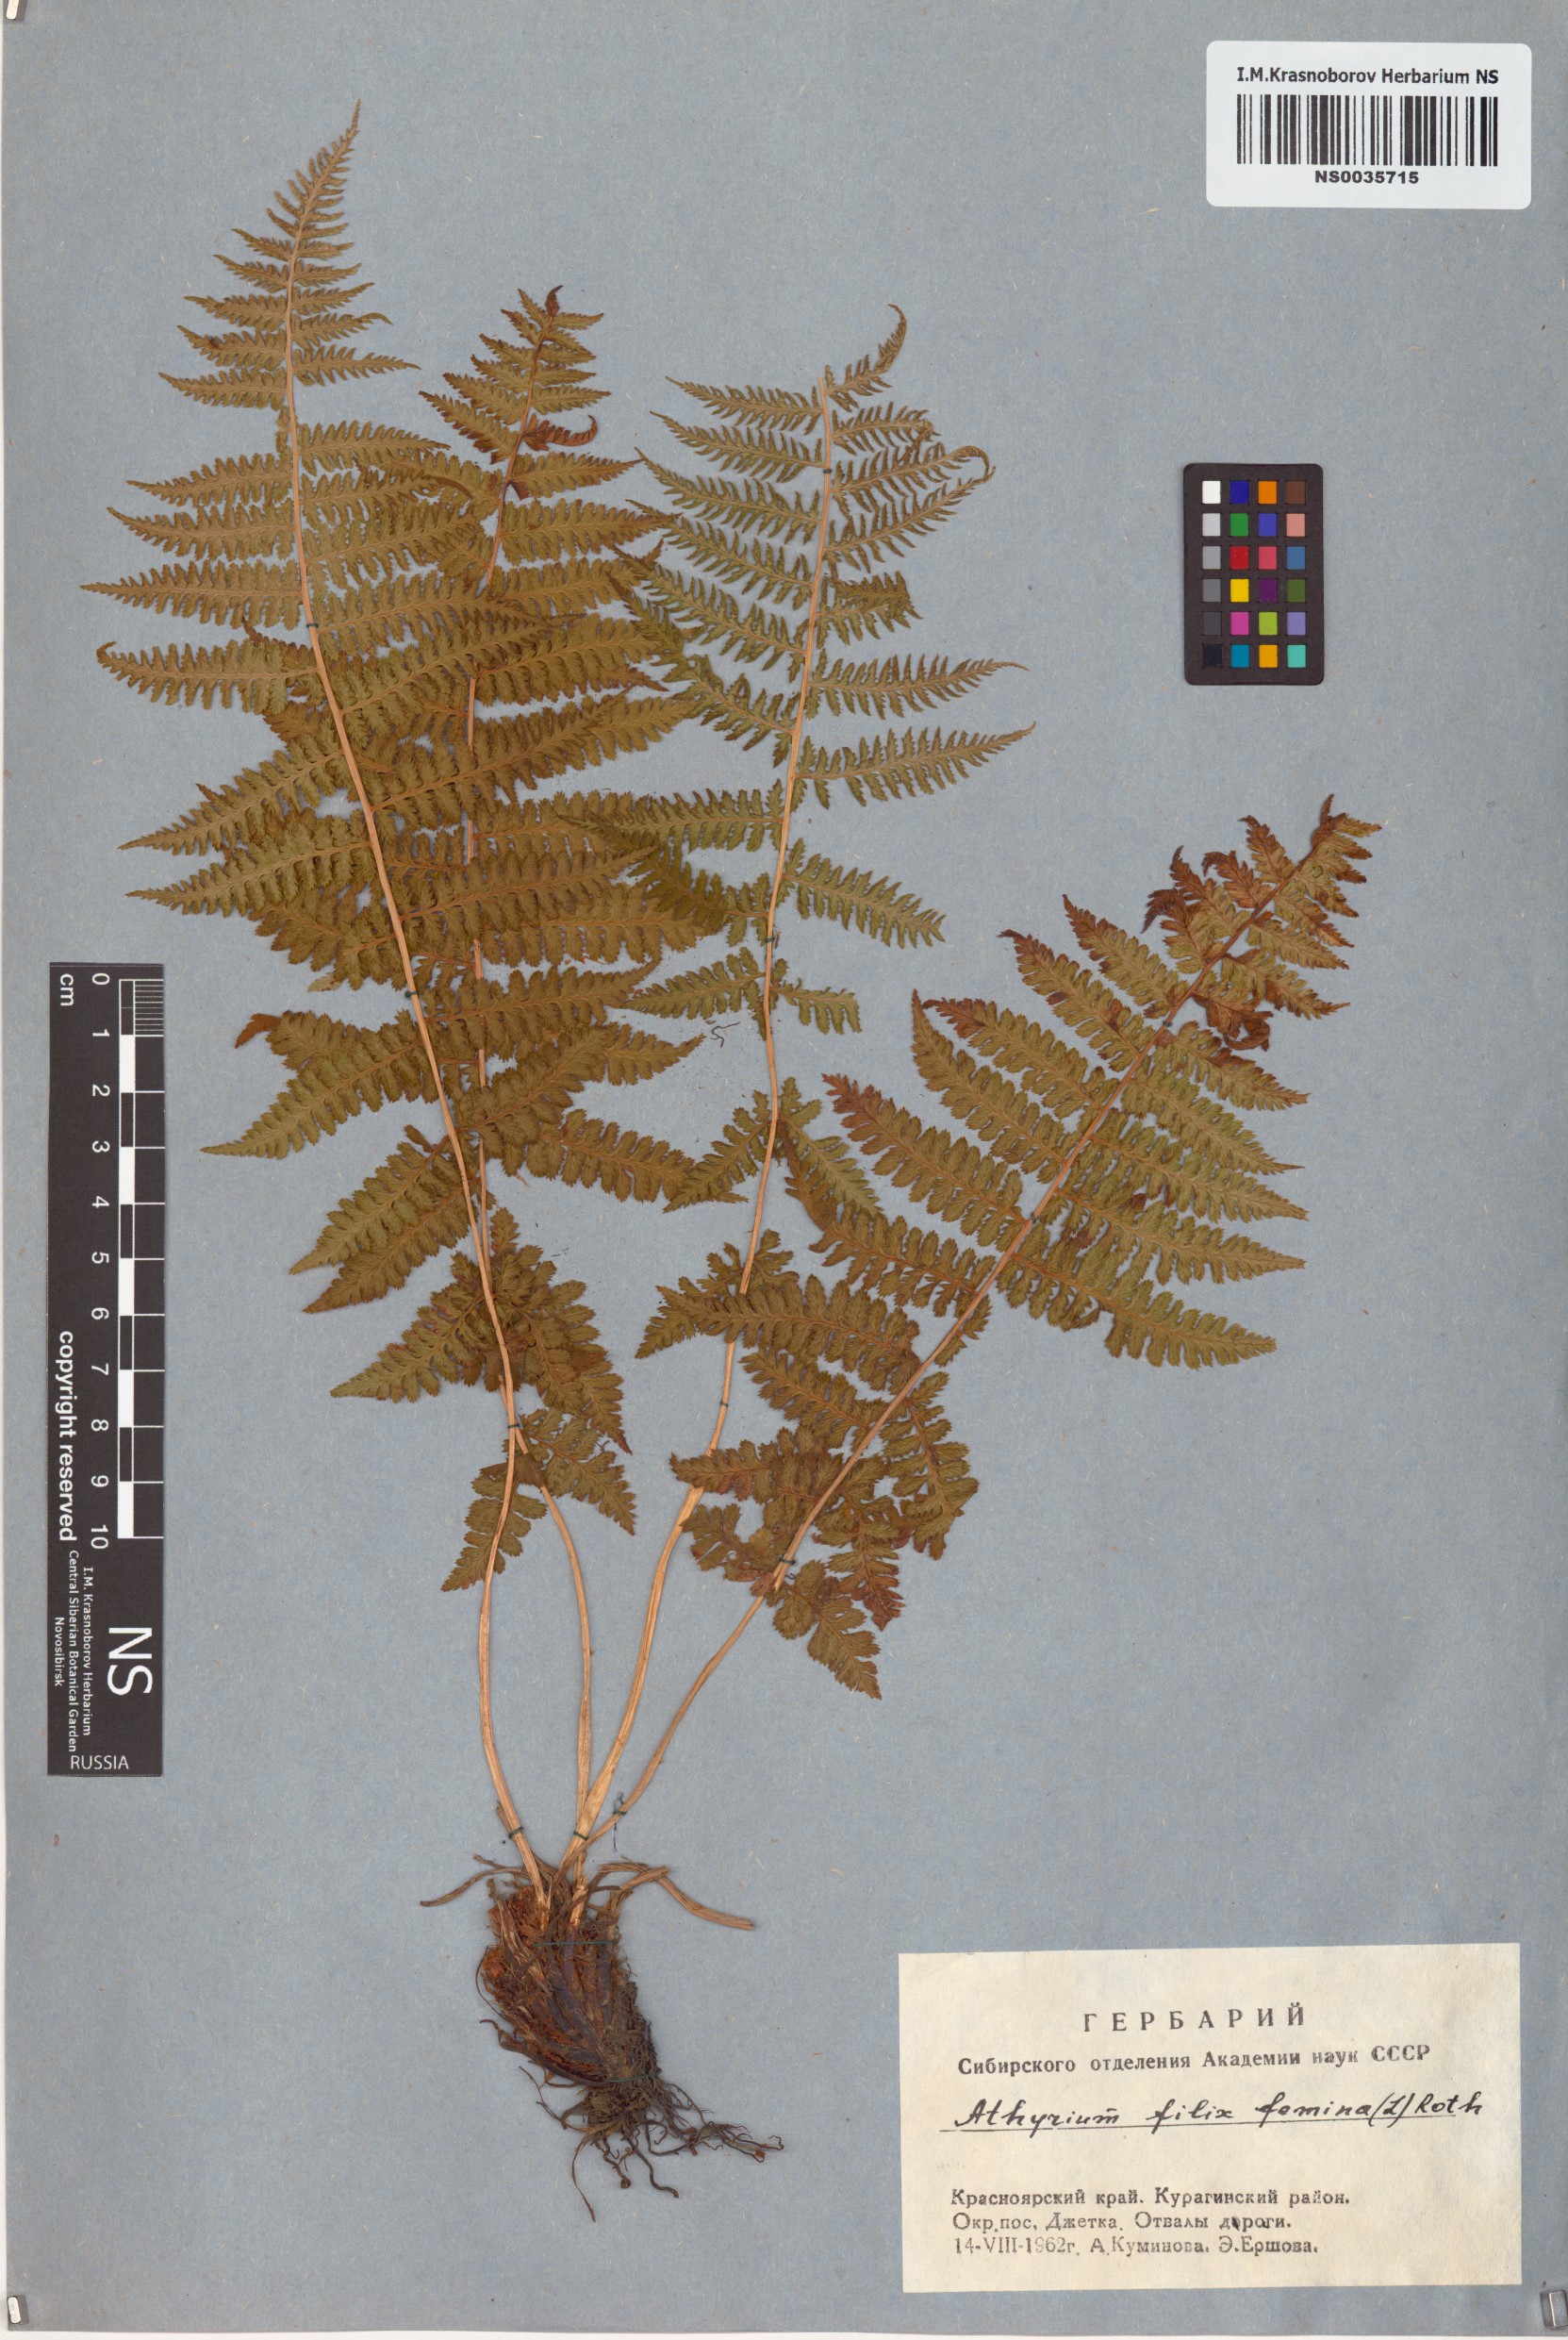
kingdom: Plantae
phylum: Tracheophyta
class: Polypodiopsida
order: Polypodiales
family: Athyriaceae
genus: Athyrium
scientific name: Athyrium filix-femina
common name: Lady fern
